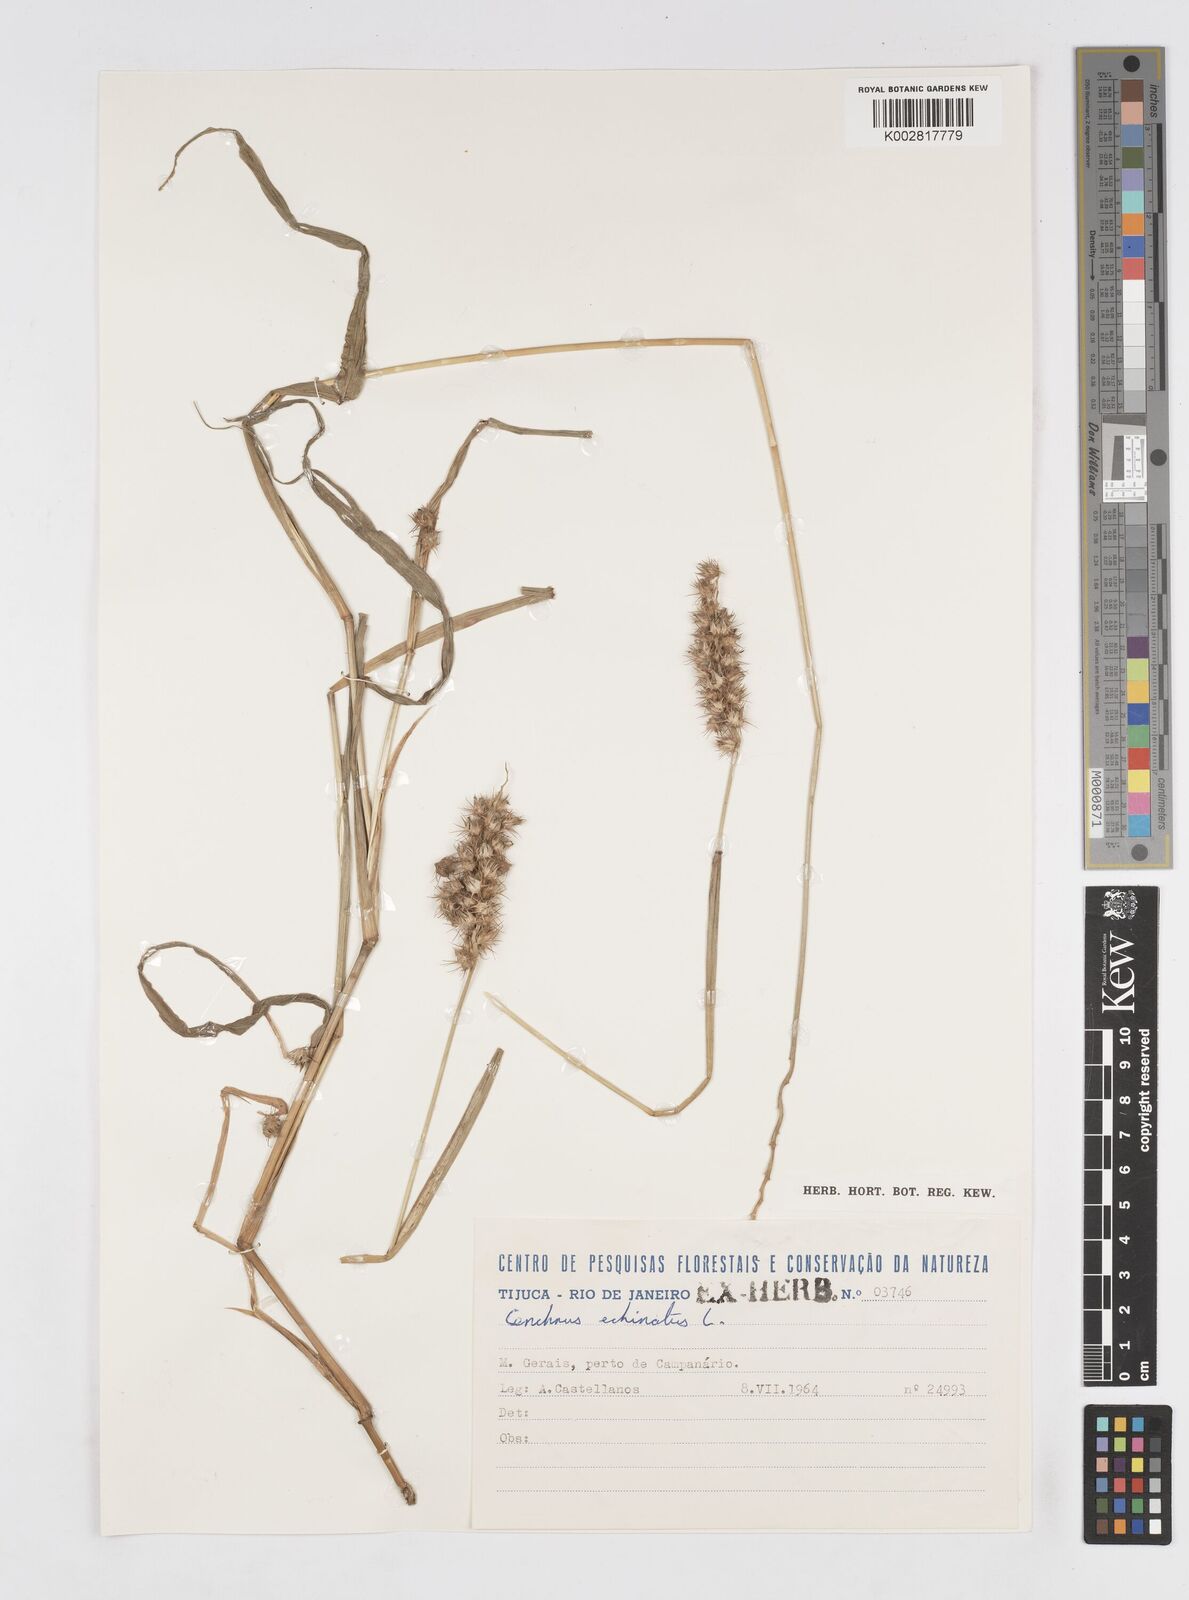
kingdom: Plantae
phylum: Tracheophyta
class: Liliopsida
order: Poales
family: Poaceae
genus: Cenchrus
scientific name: Cenchrus
